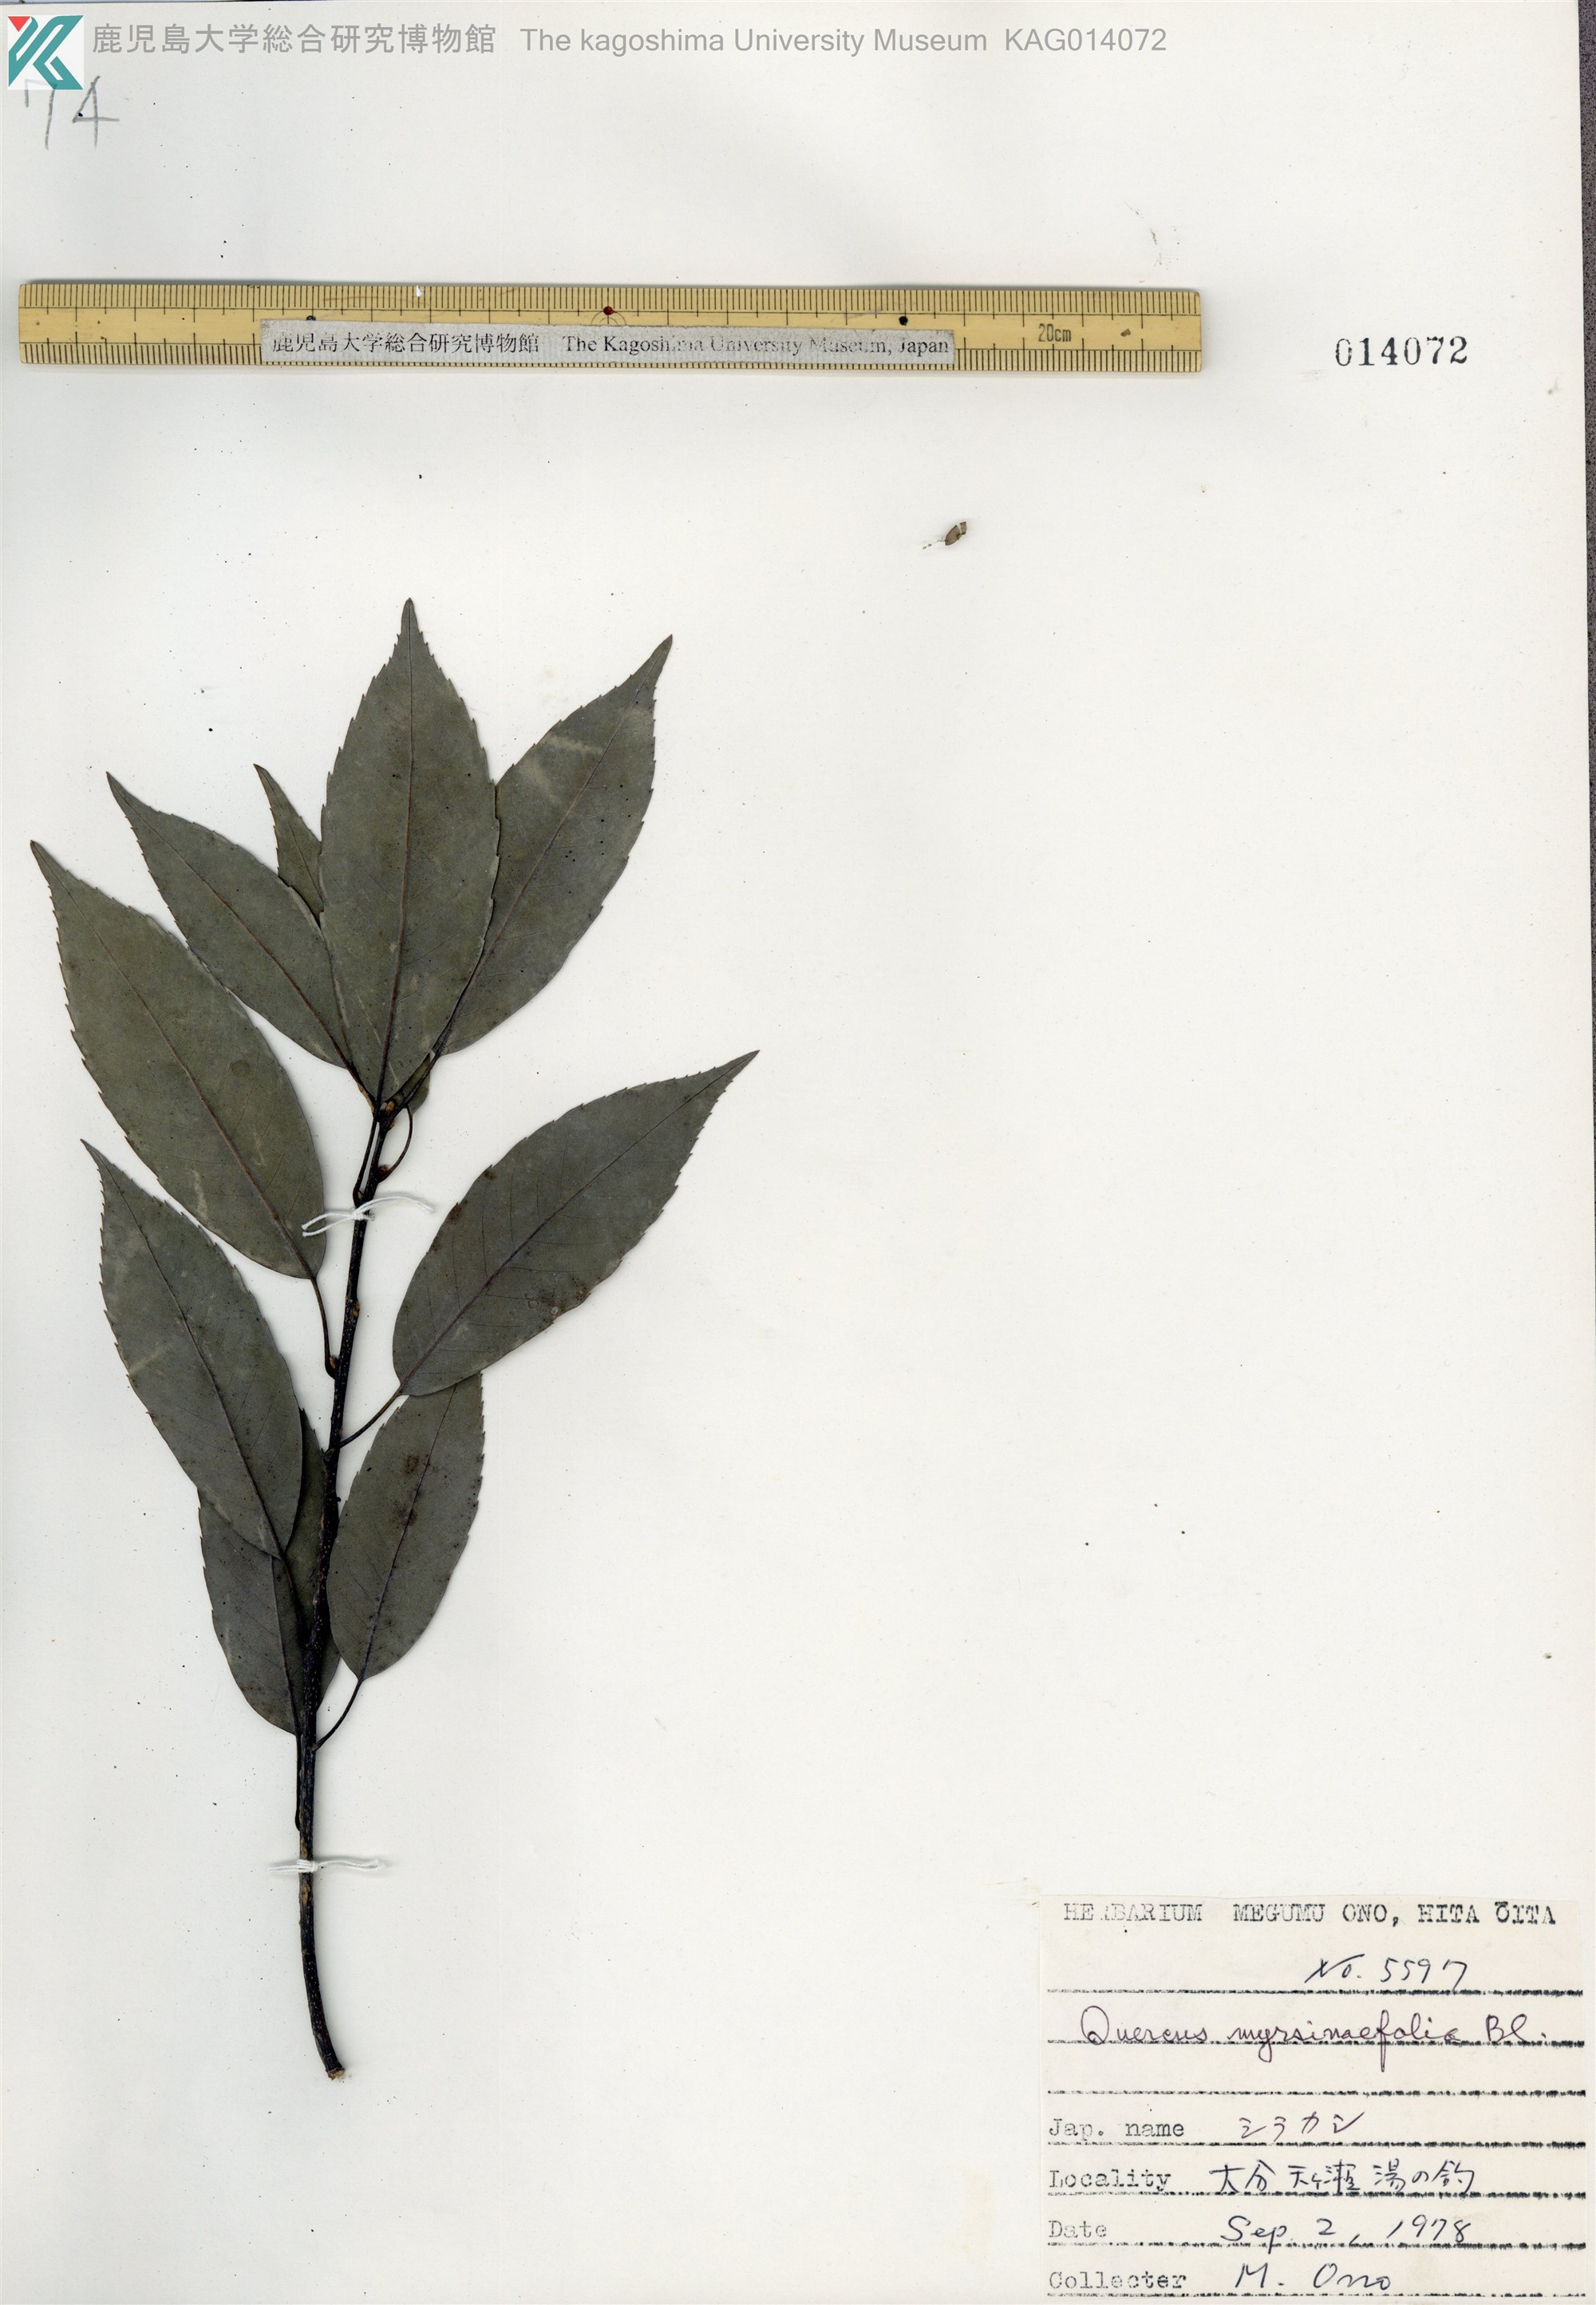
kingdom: Plantae
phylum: Tracheophyta
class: Magnoliopsida
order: Fagales
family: Fagaceae
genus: Quercus
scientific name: Quercus myrsinaefolia
